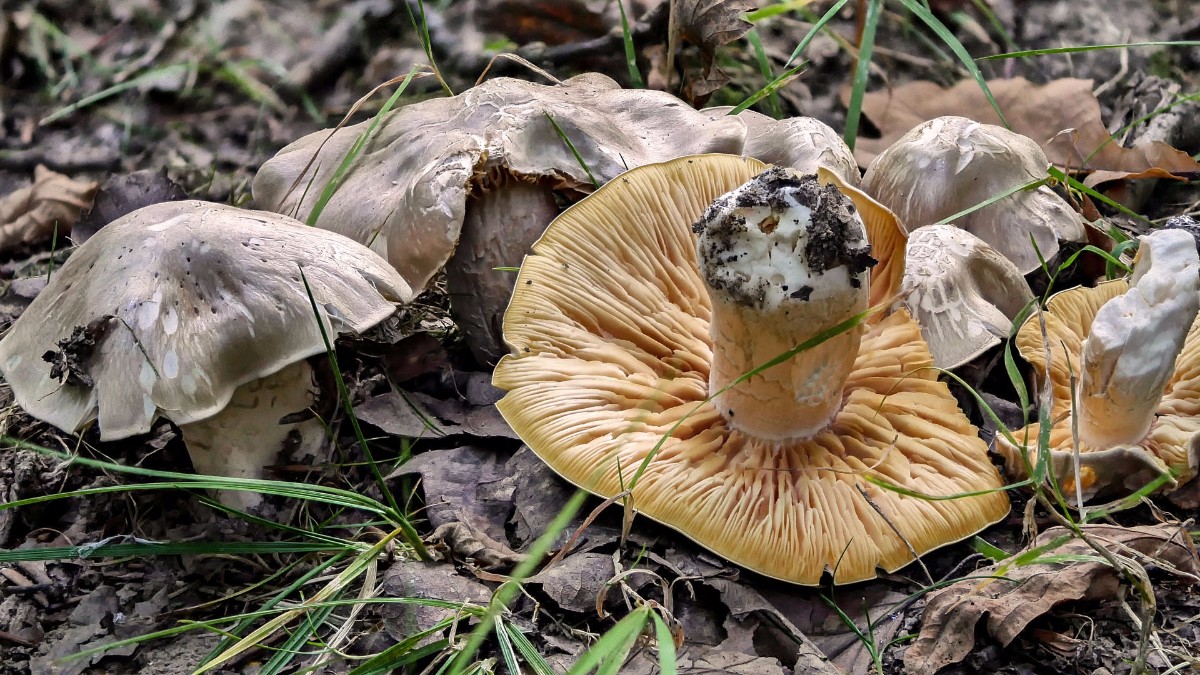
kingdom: Fungi
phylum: Basidiomycota
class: Agaricomycetes
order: Agaricales
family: Entolomataceae
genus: Entoloma
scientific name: Entoloma sinuatum
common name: giftig rødblad
